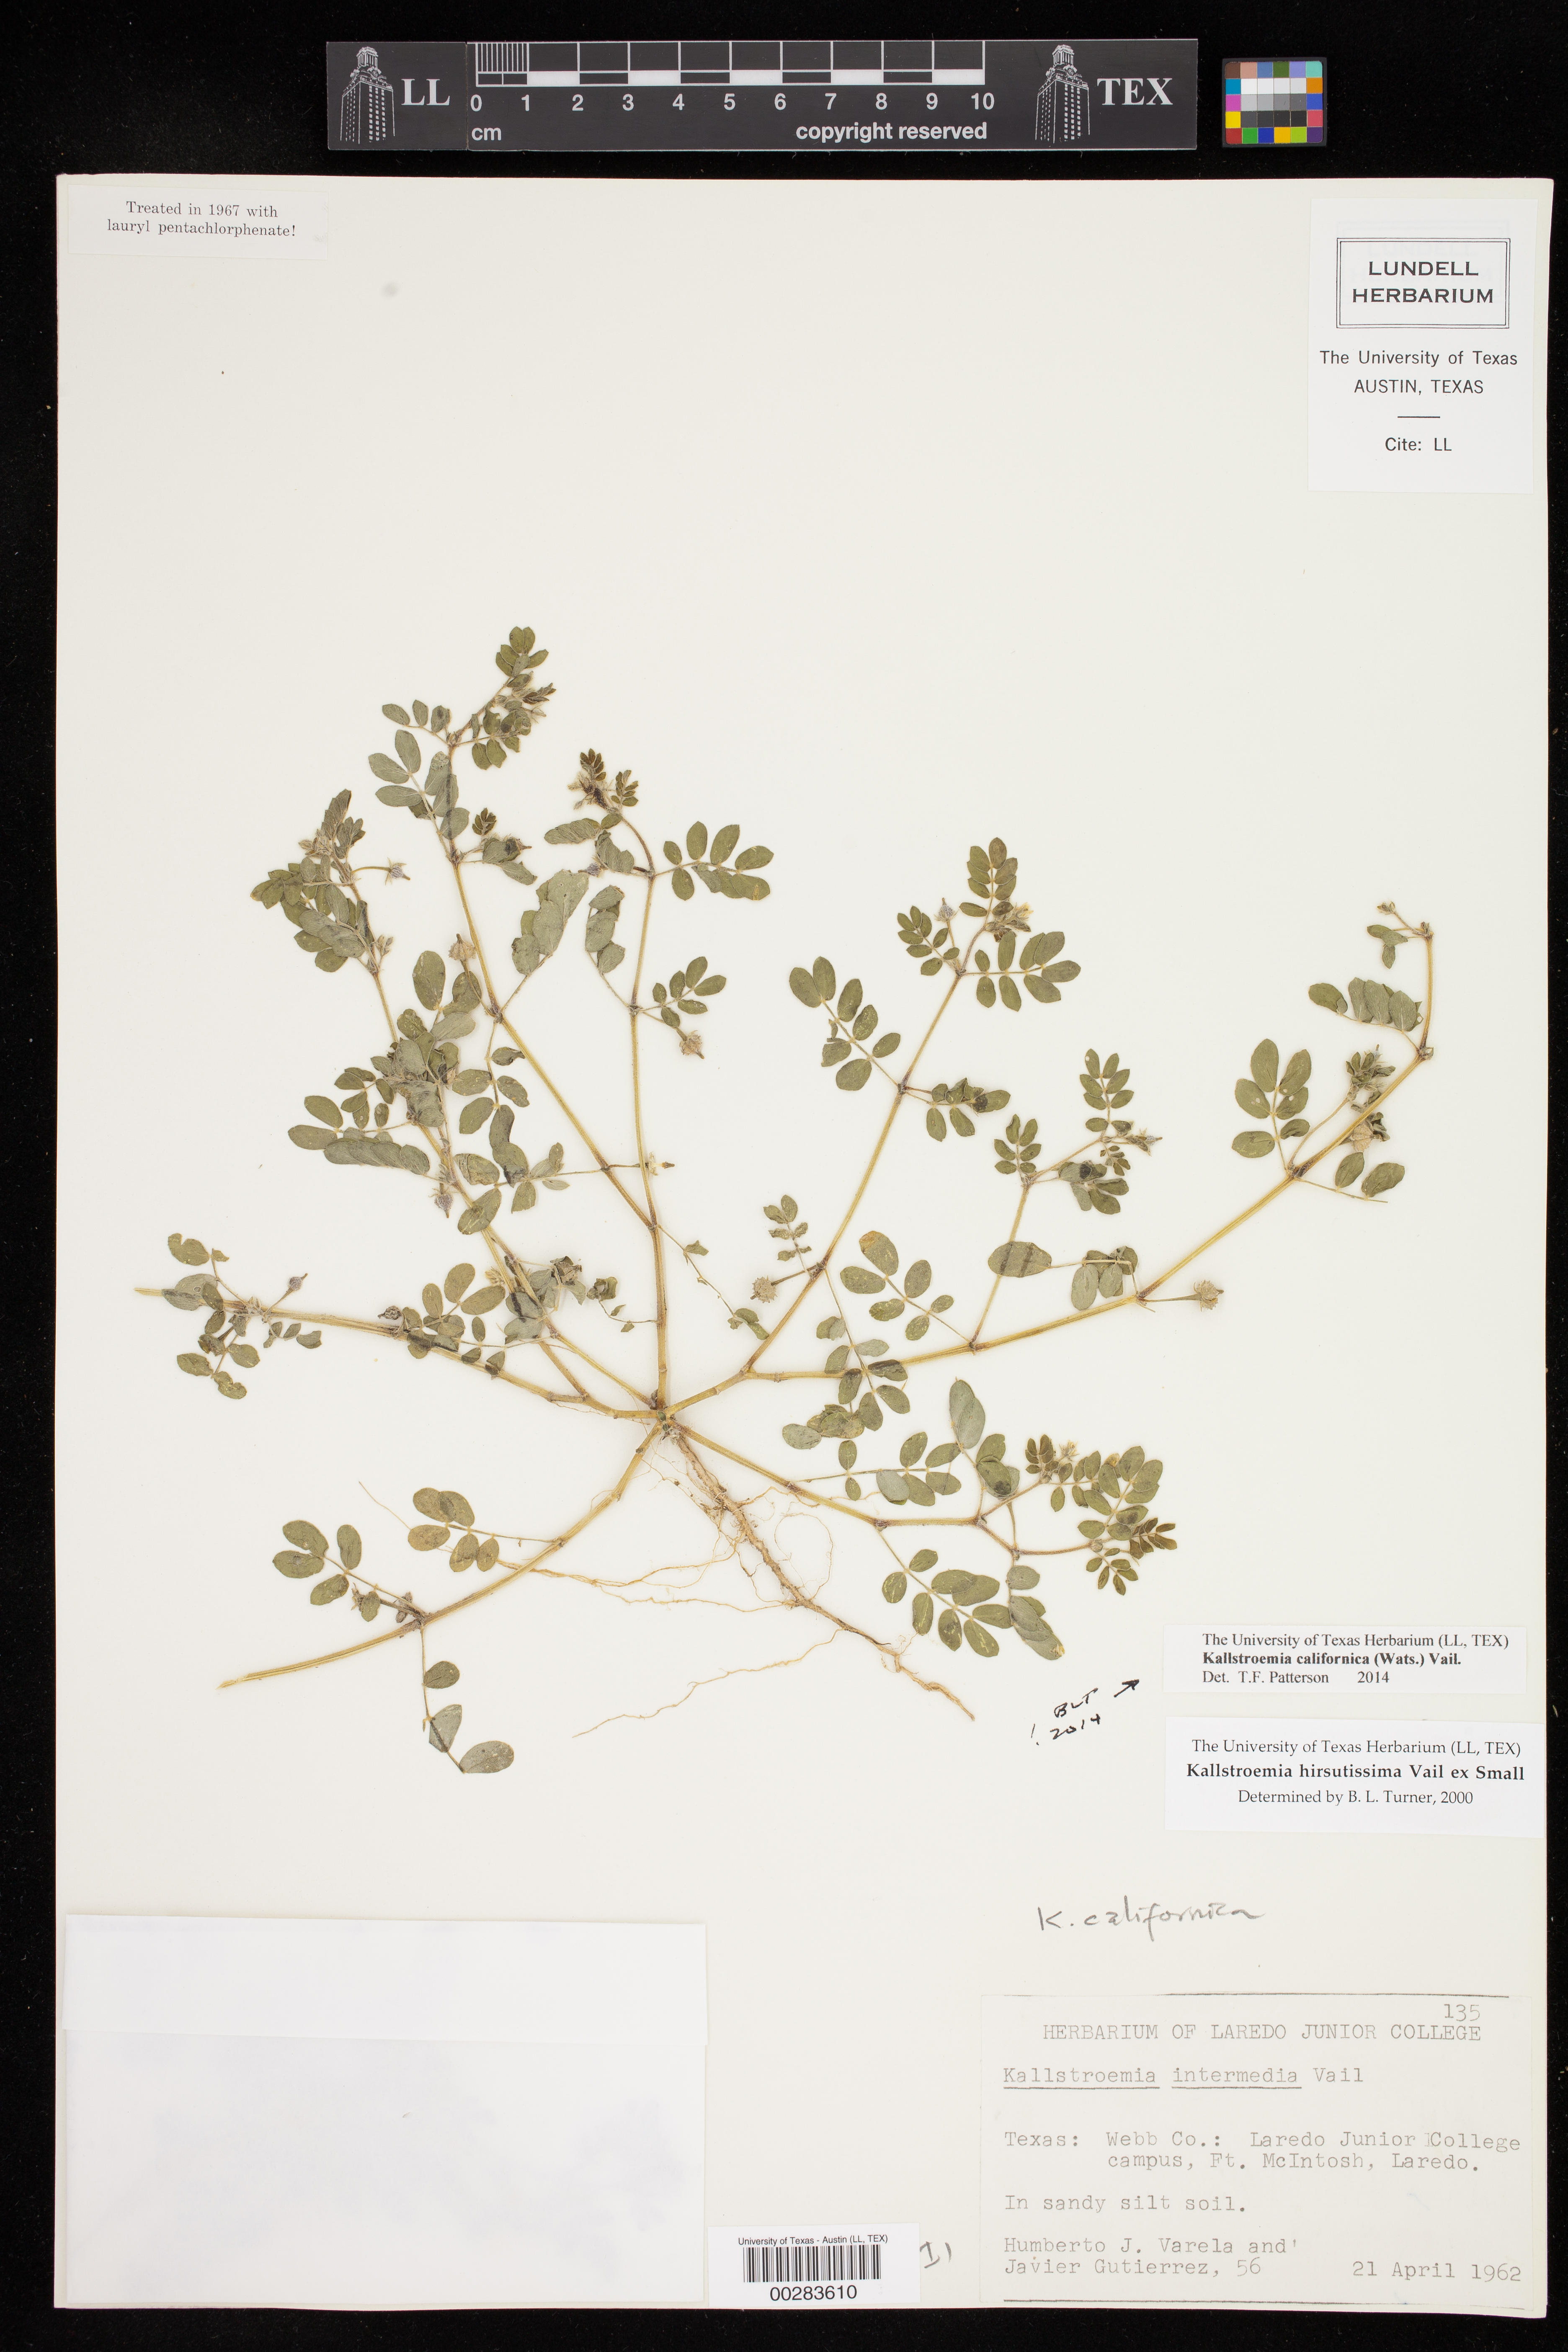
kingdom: Plantae
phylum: Tracheophyta
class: Magnoliopsida
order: Zygophyllales
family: Zygophyllaceae
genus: Kallstroemia
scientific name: Kallstroemia californica
